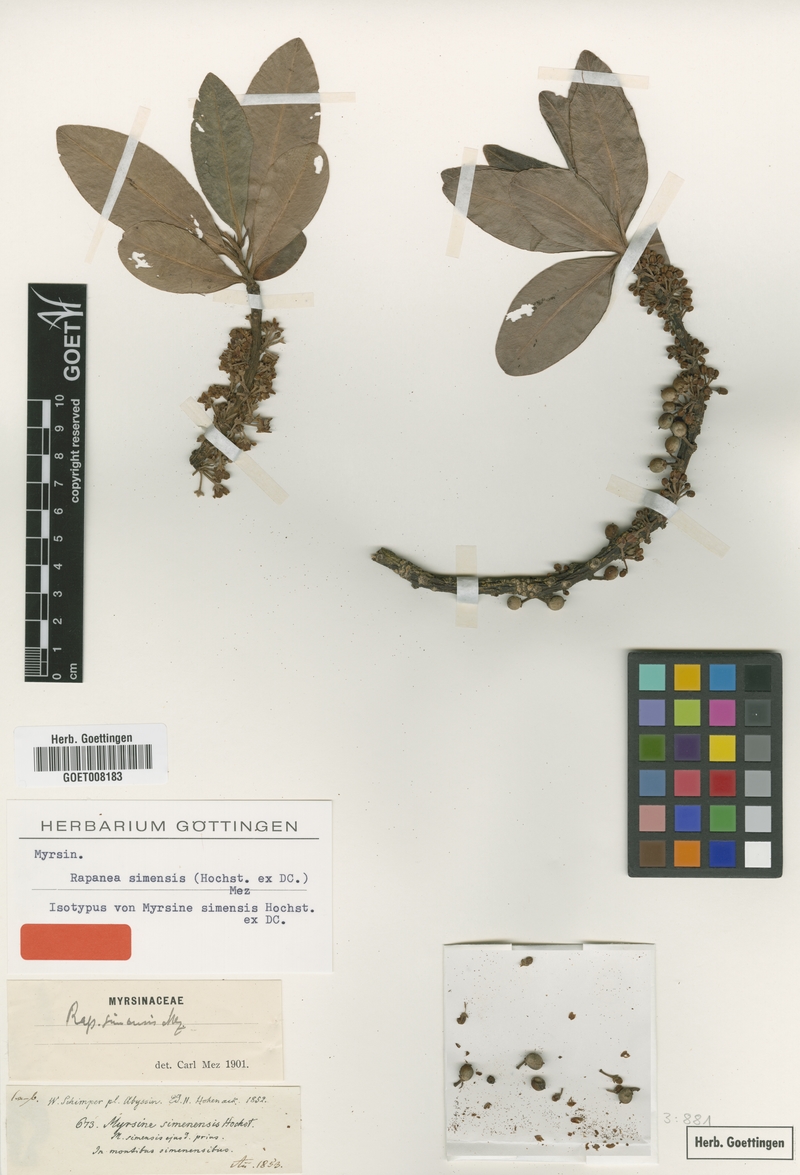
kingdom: Plantae
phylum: Tracheophyta
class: Magnoliopsida
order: Ericales
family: Primulaceae
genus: Myrsine
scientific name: Myrsine melanophloeos
